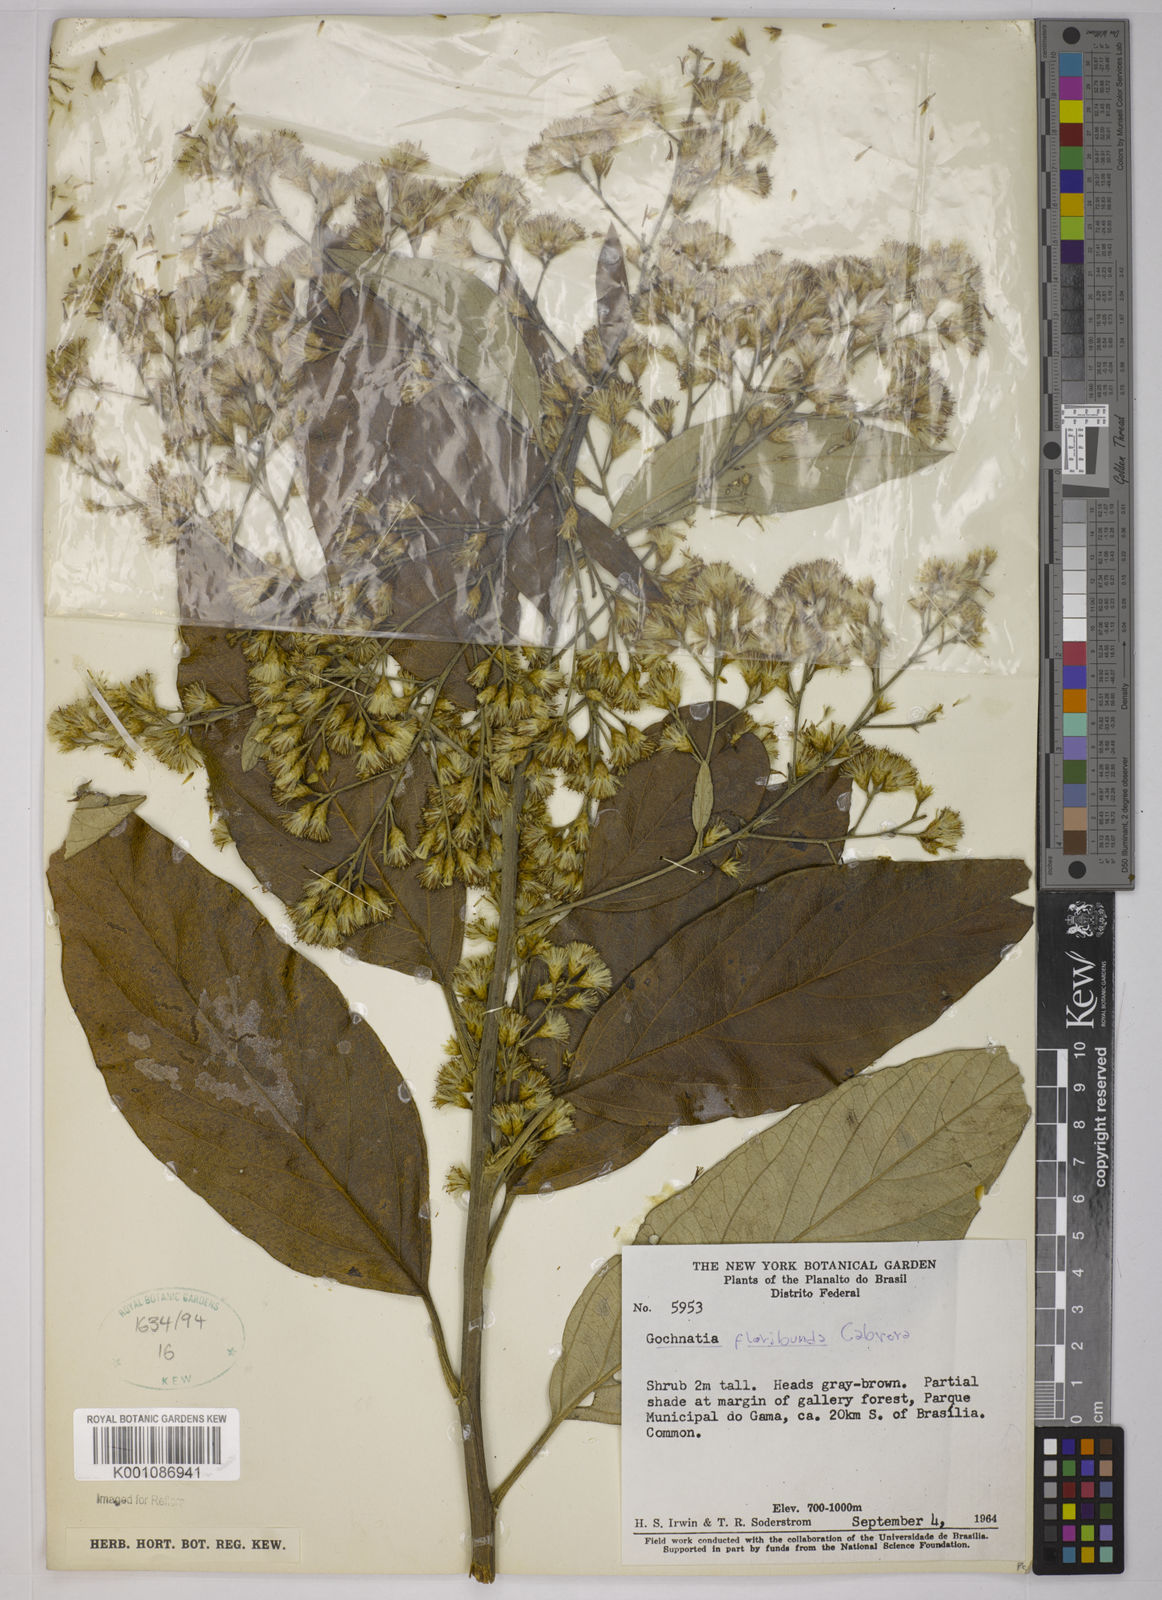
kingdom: Plantae
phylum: Tracheophyta
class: Magnoliopsida
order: Asterales
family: Asteraceae
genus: Moquiniastrum
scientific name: Moquiniastrum floribundum
